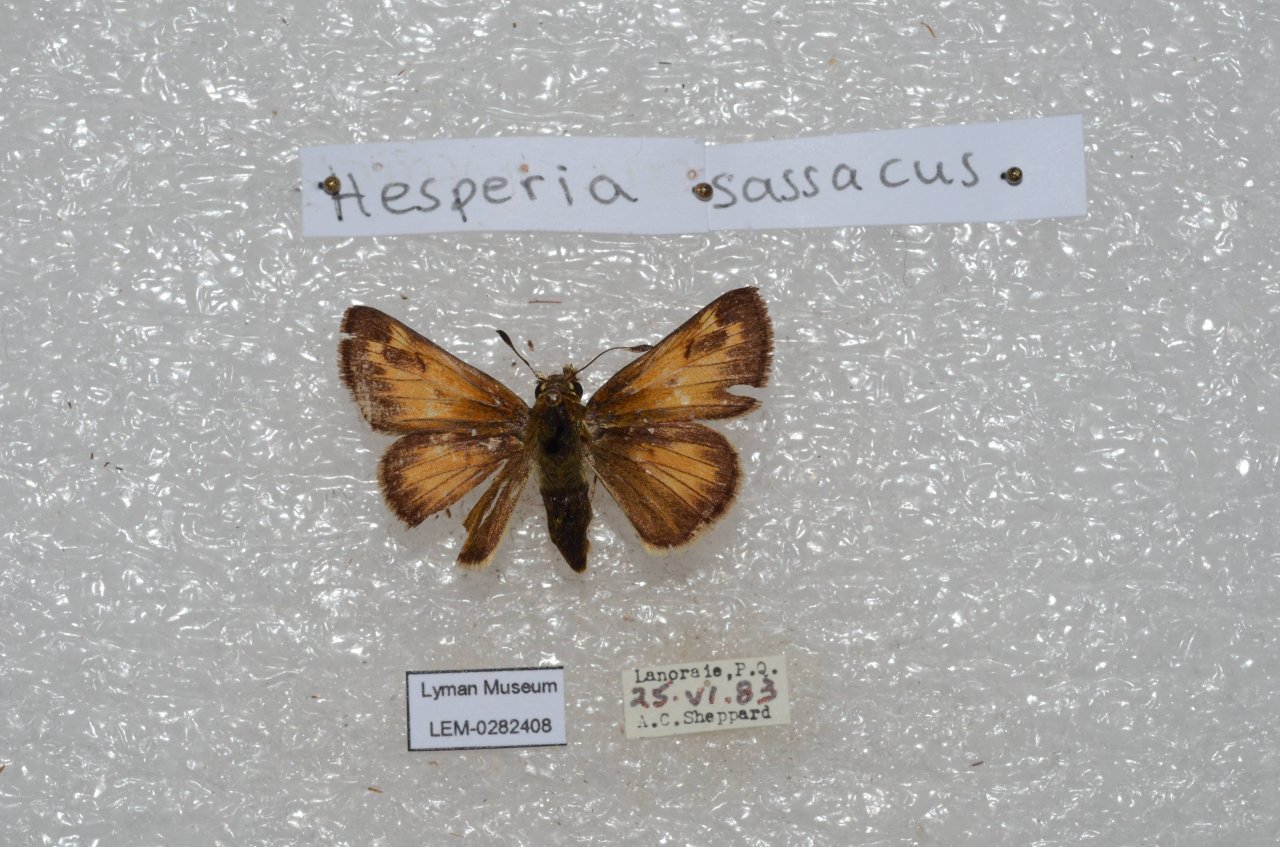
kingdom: Animalia
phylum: Arthropoda
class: Insecta
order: Lepidoptera
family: Hesperiidae
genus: Hesperia
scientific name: Hesperia sassacus
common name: Sassacus Skipper
